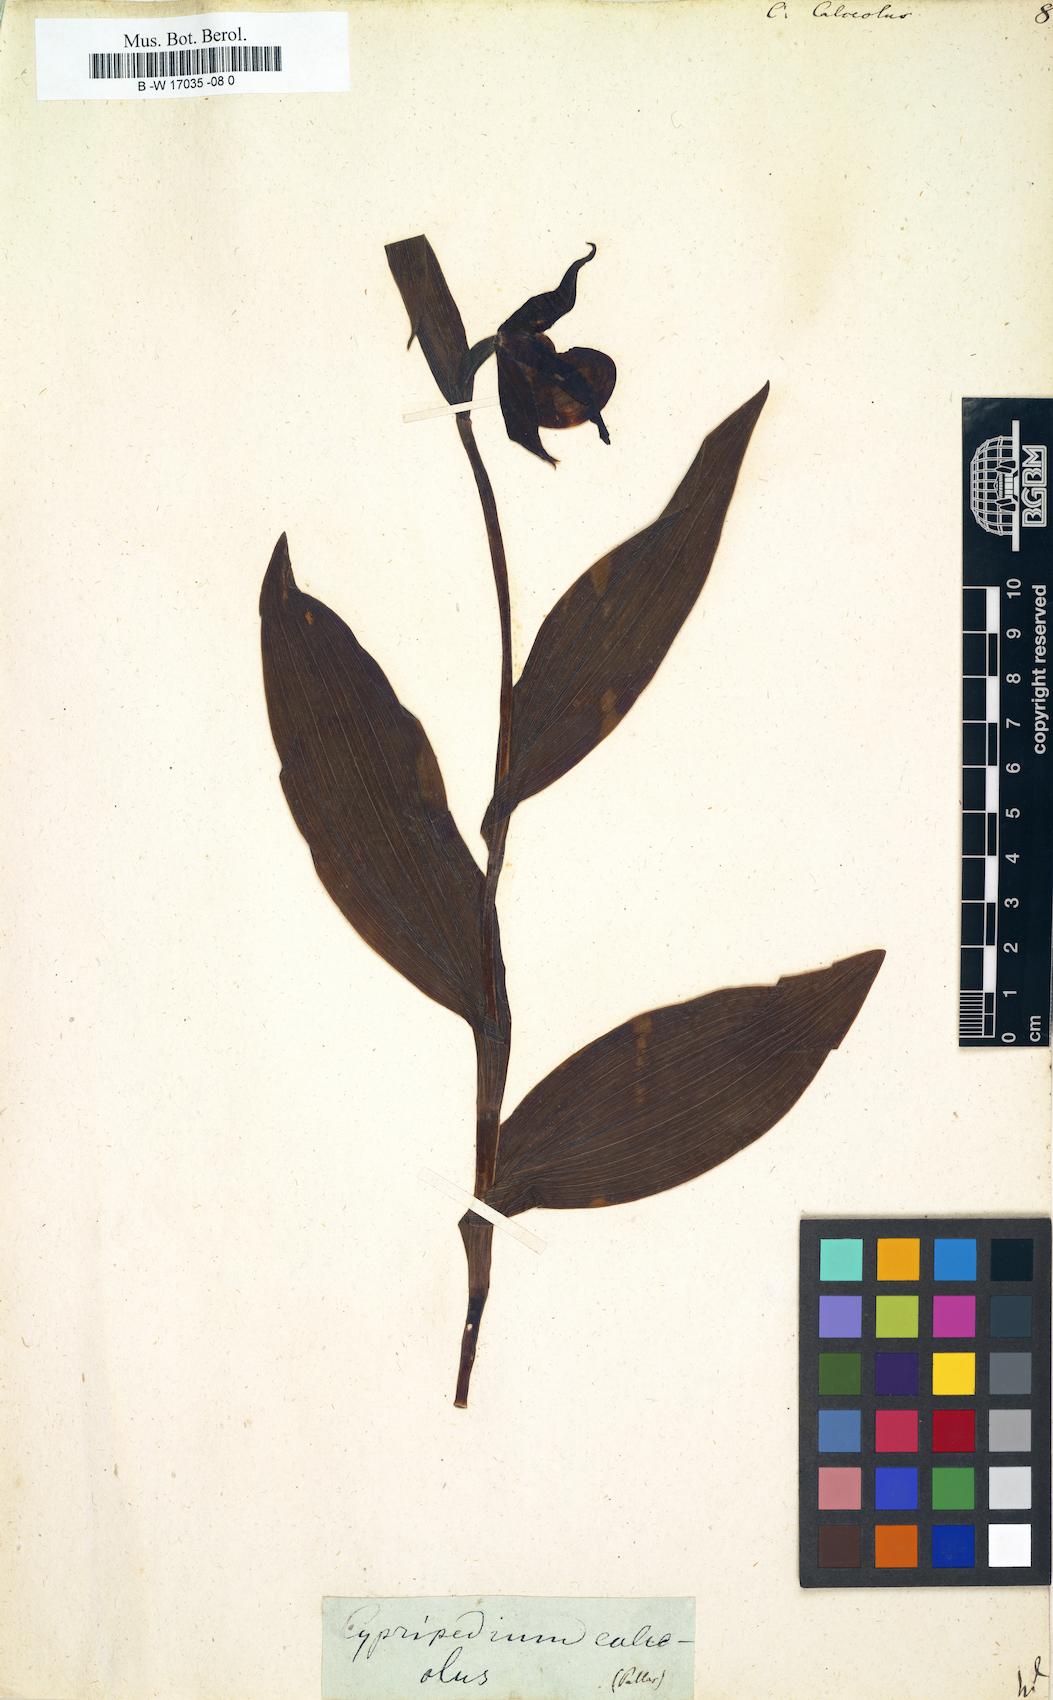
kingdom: Plantae
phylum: Tracheophyta
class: Liliopsida
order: Asparagales
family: Orchidaceae
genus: Cypripedium
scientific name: Cypripedium calceolus
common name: Lady's-slipper
